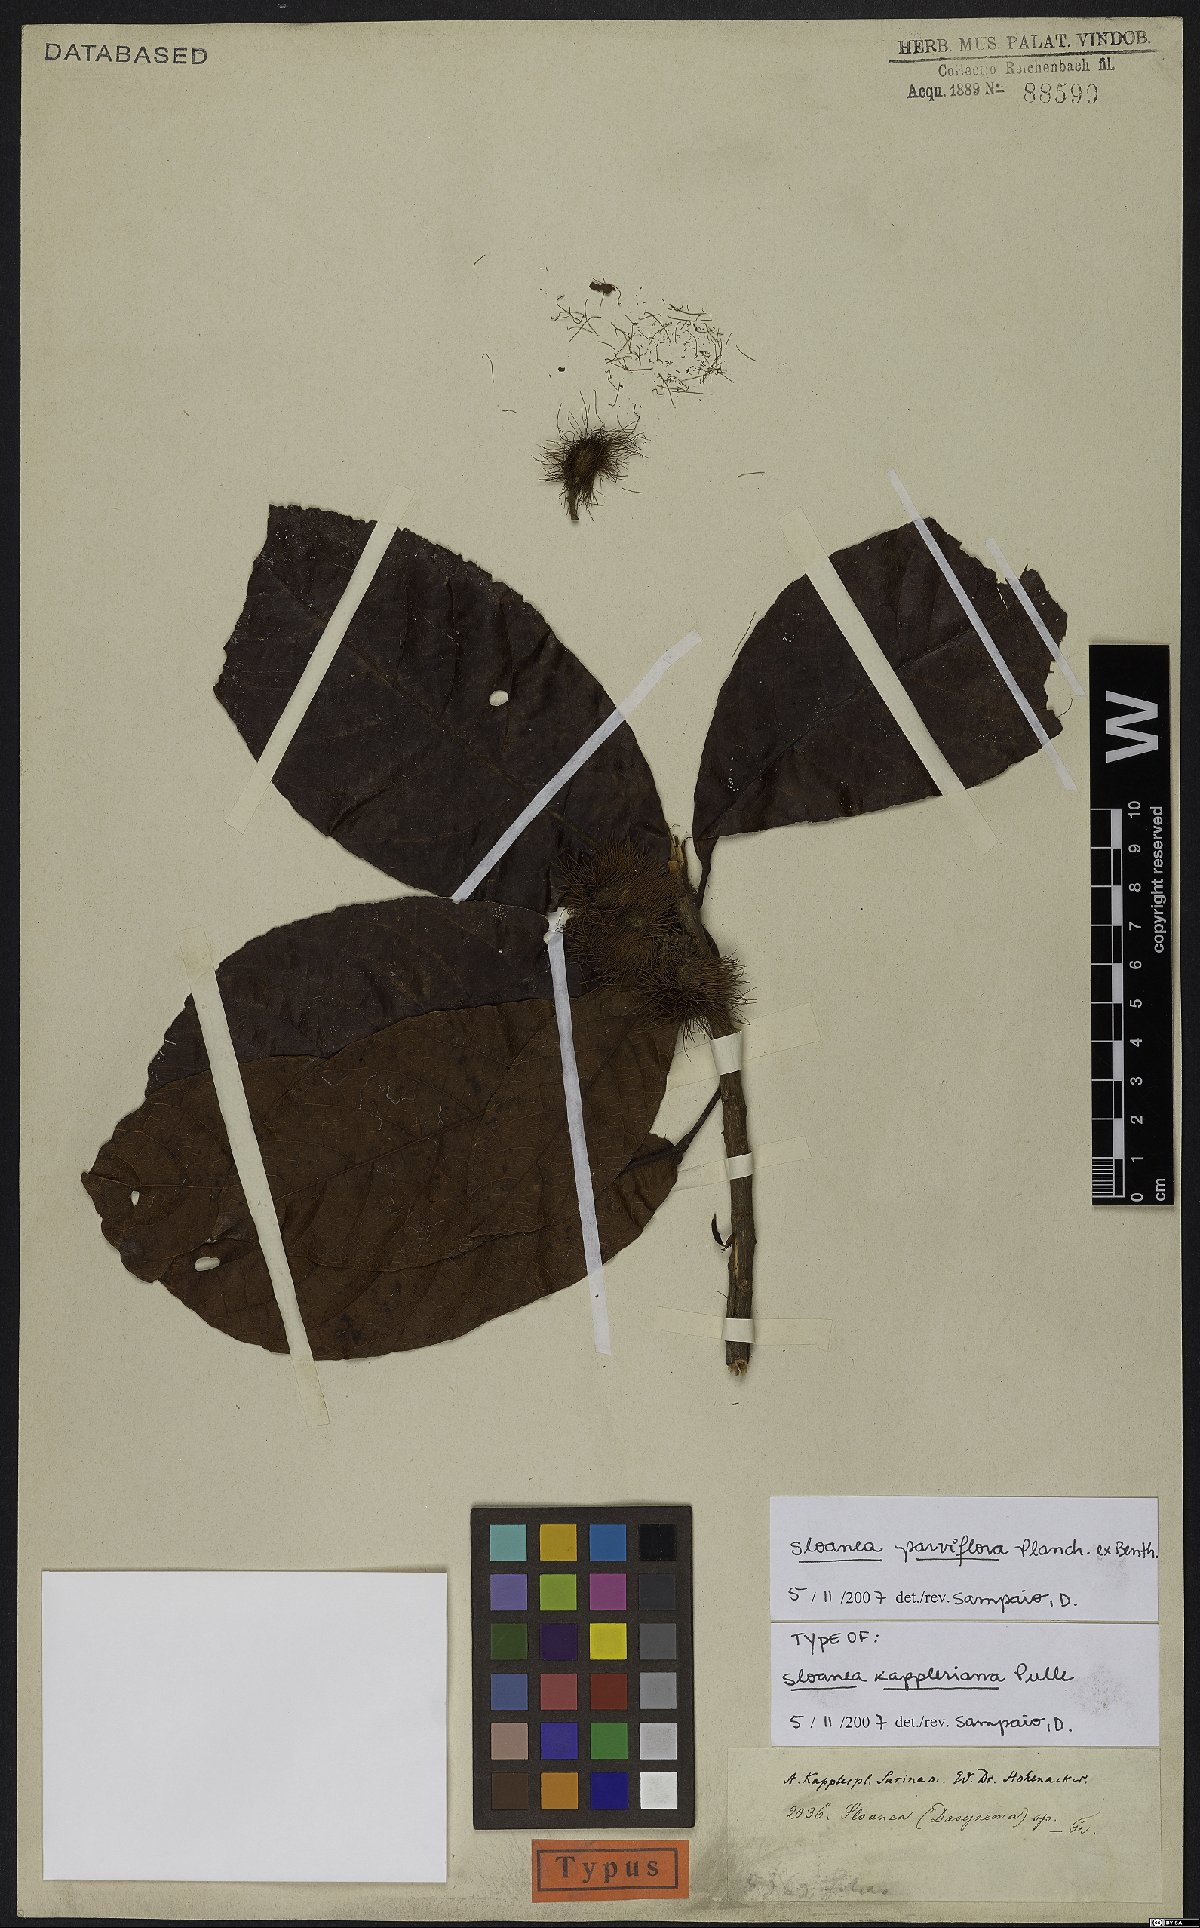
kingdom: Plantae
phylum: Tracheophyta
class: Magnoliopsida
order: Oxalidales
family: Elaeocarpaceae
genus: Sloanea
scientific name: Sloanea kappleriana
